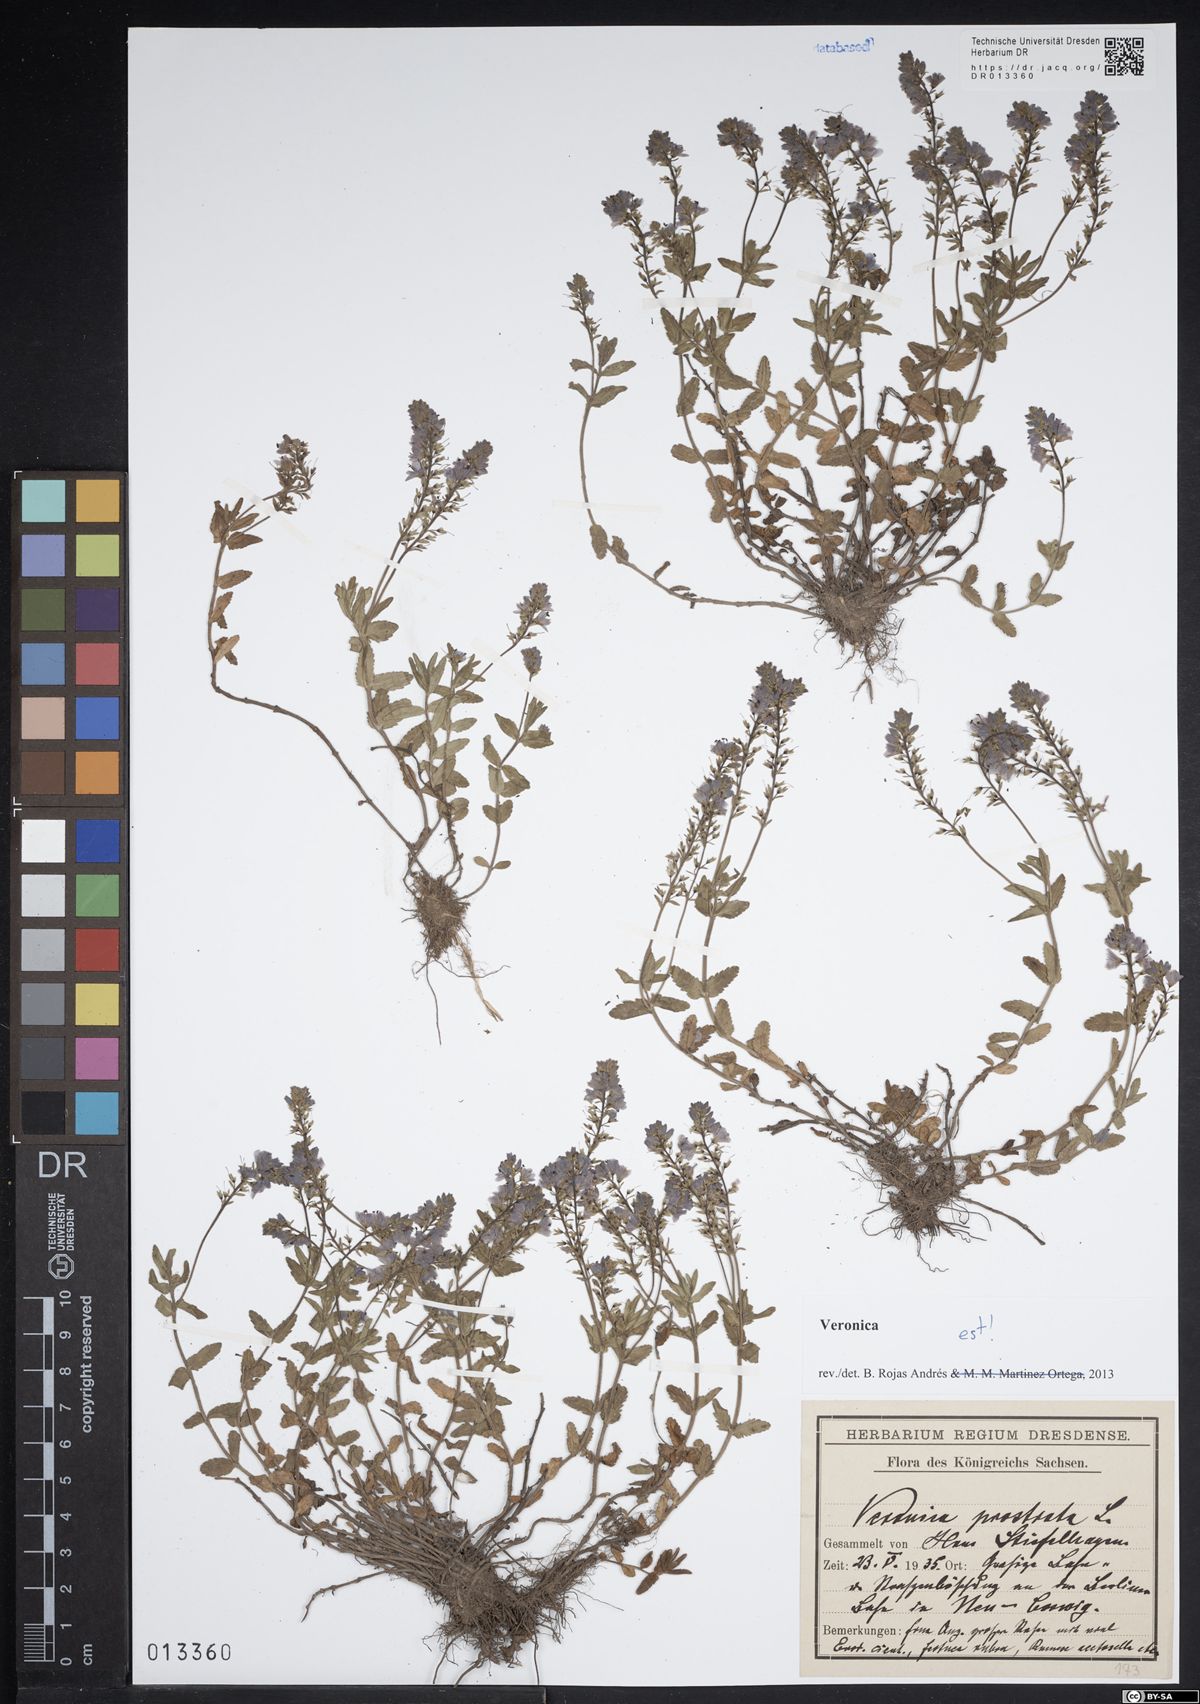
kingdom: Plantae
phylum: Tracheophyta
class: Magnoliopsida
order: Lamiales
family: Plantaginaceae
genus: Veronica
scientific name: Veronica prostrata
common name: Prostrate speedwell
